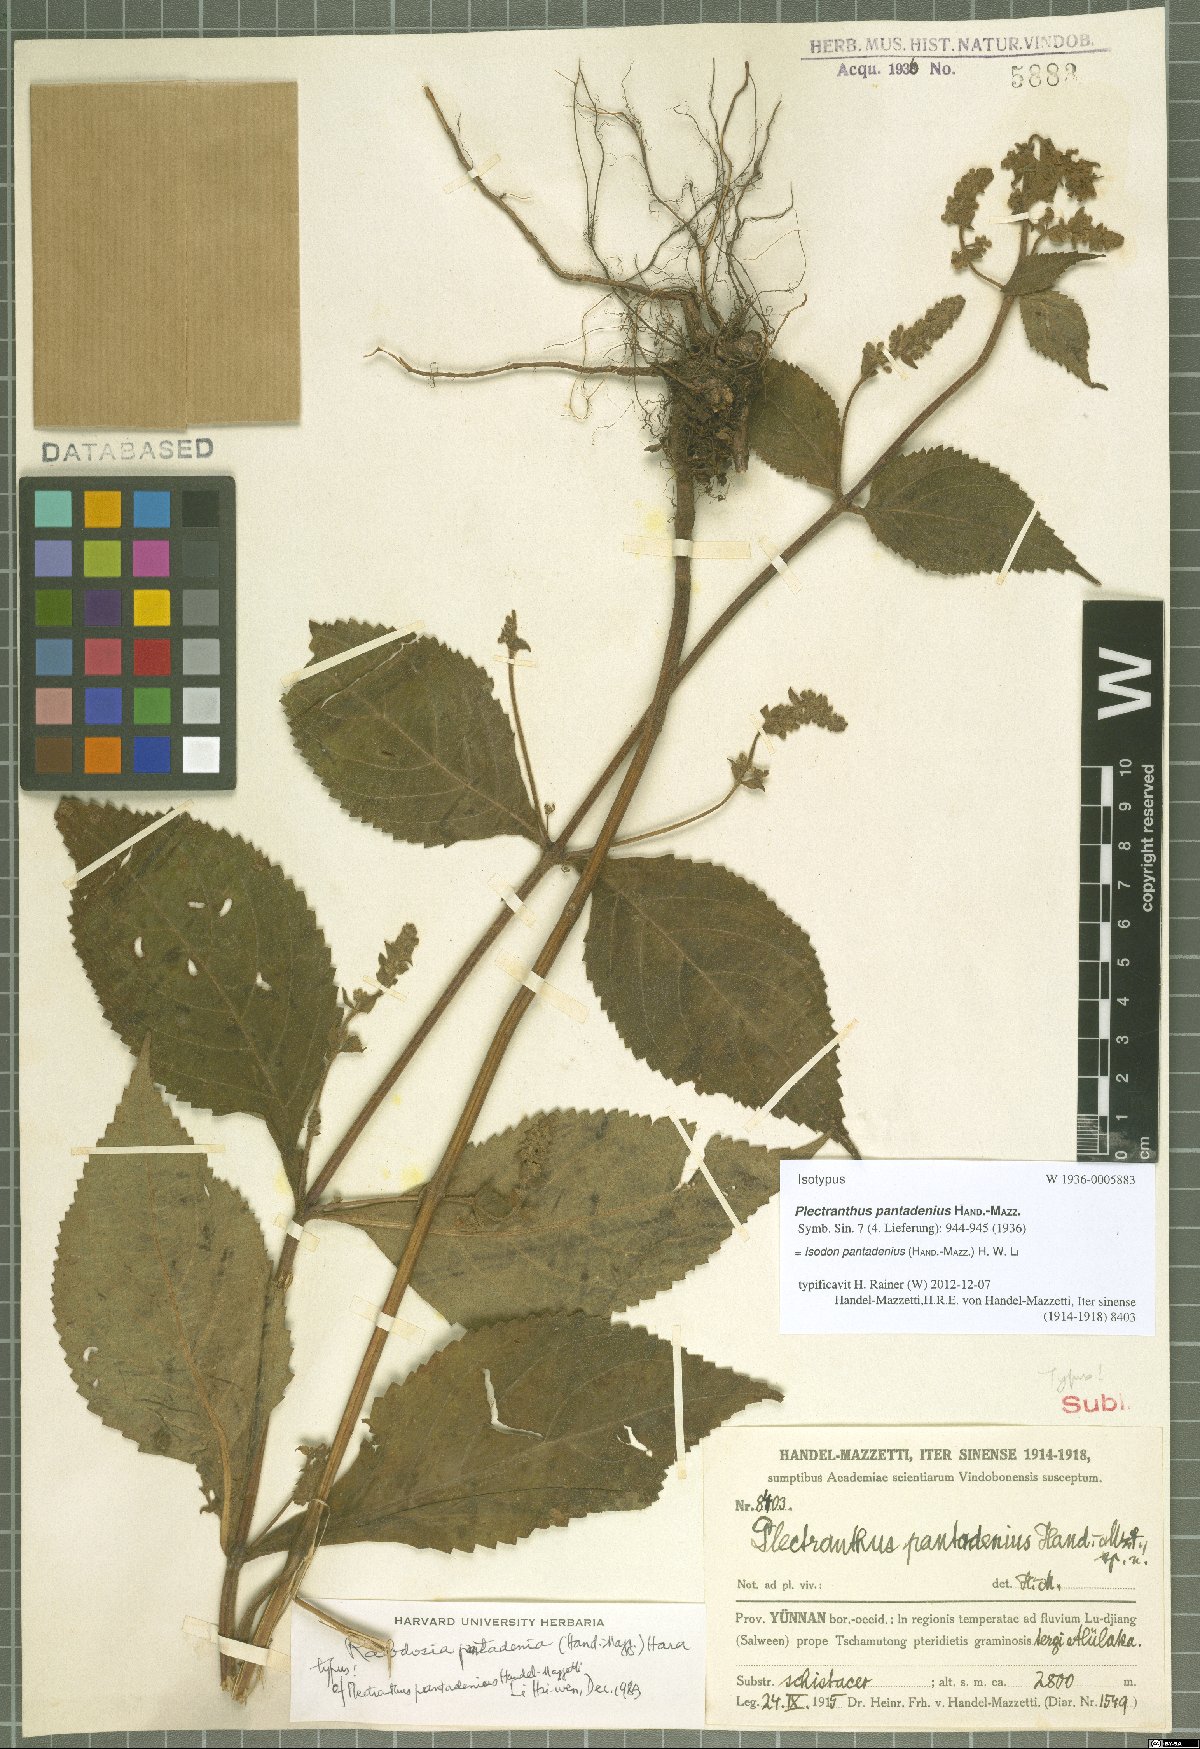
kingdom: Plantae
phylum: Tracheophyta
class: Magnoliopsida
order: Lamiales
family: Lamiaceae
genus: Isodon
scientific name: Isodon pantadenius
